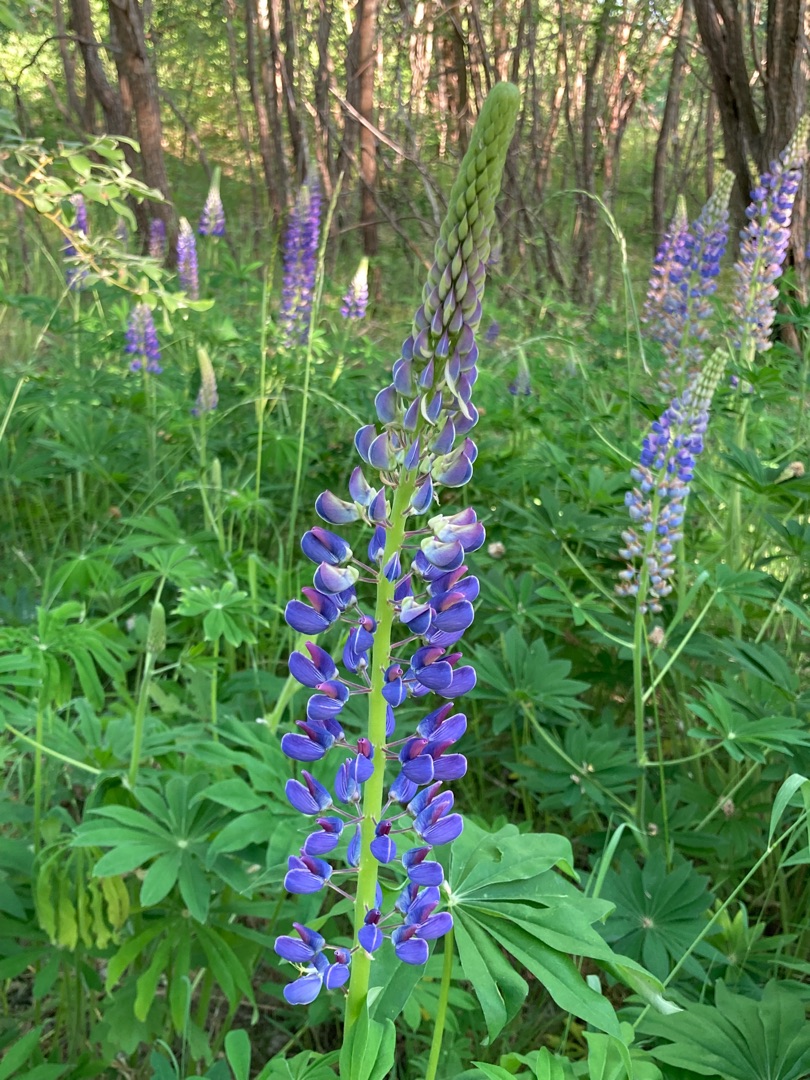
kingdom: Plantae
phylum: Tracheophyta
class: Magnoliopsida
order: Fabales
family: Fabaceae
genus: Lupinus
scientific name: Lupinus polyphyllus
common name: Mangebladet lupin
